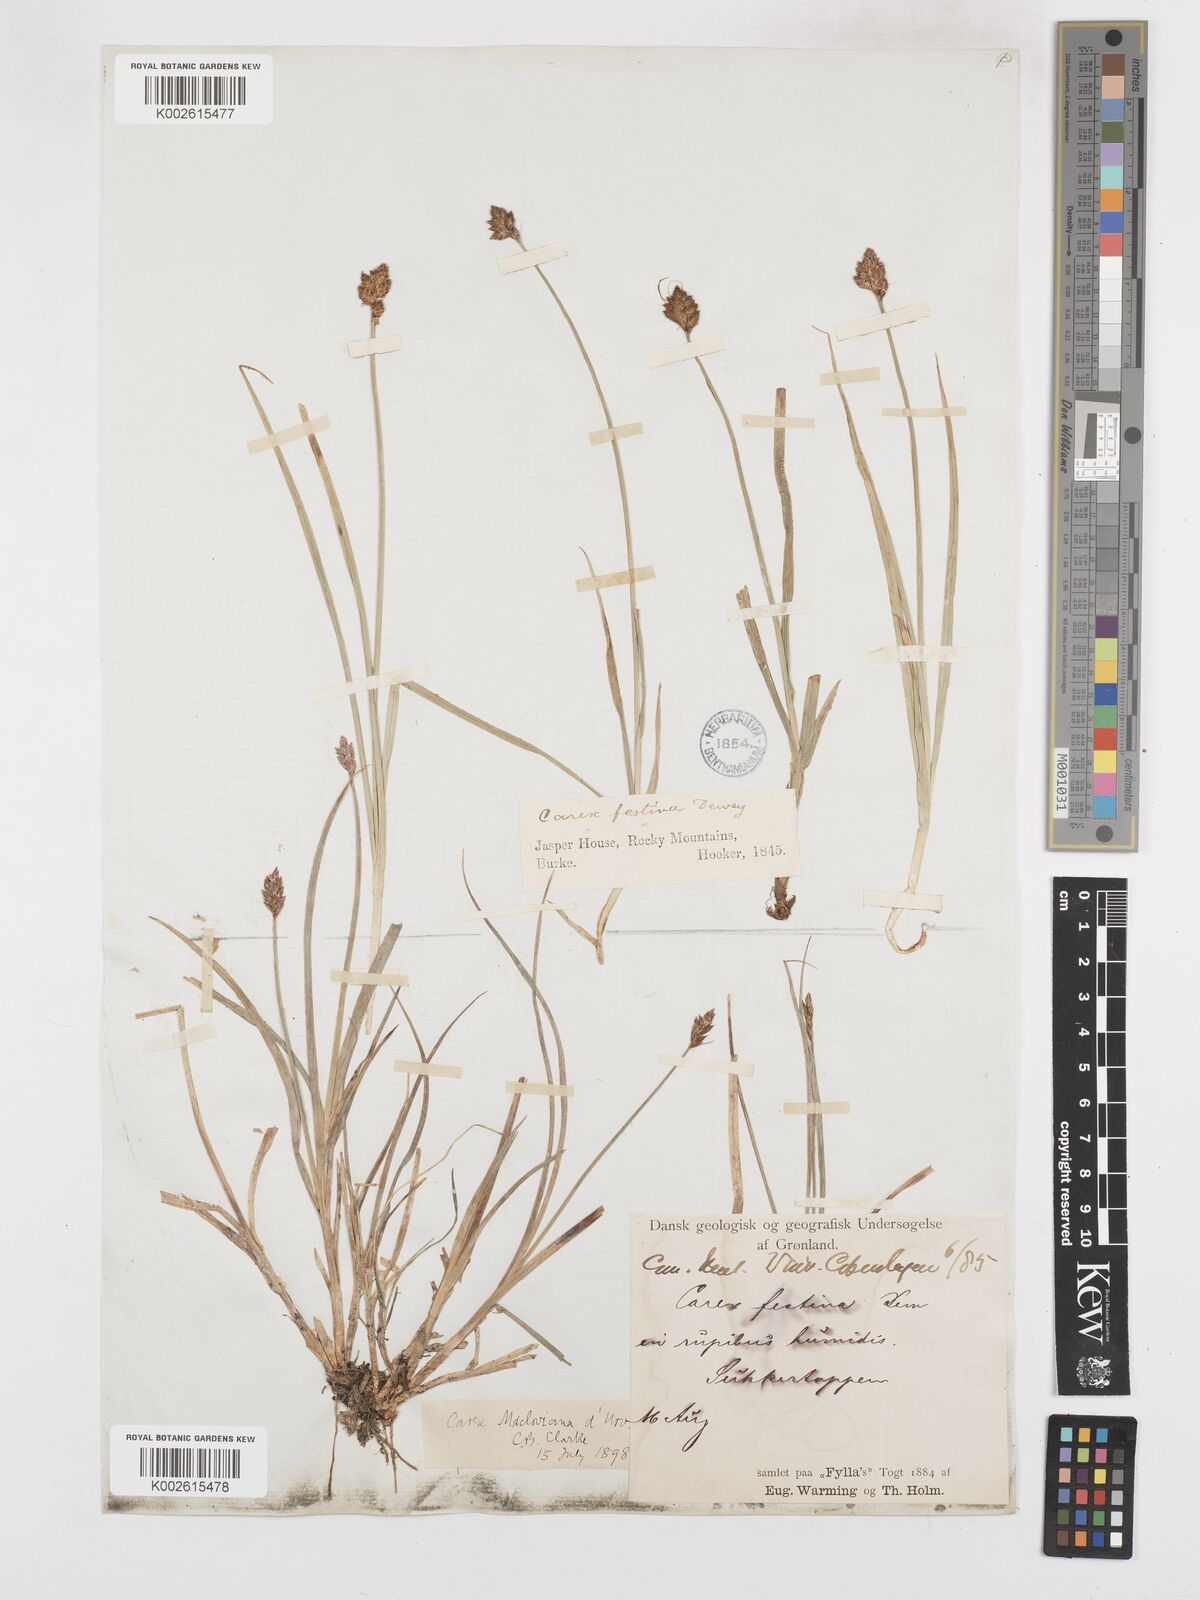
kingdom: Plantae
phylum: Tracheophyta
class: Liliopsida
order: Poales
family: Cyperaceae
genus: Carex
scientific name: Carex
